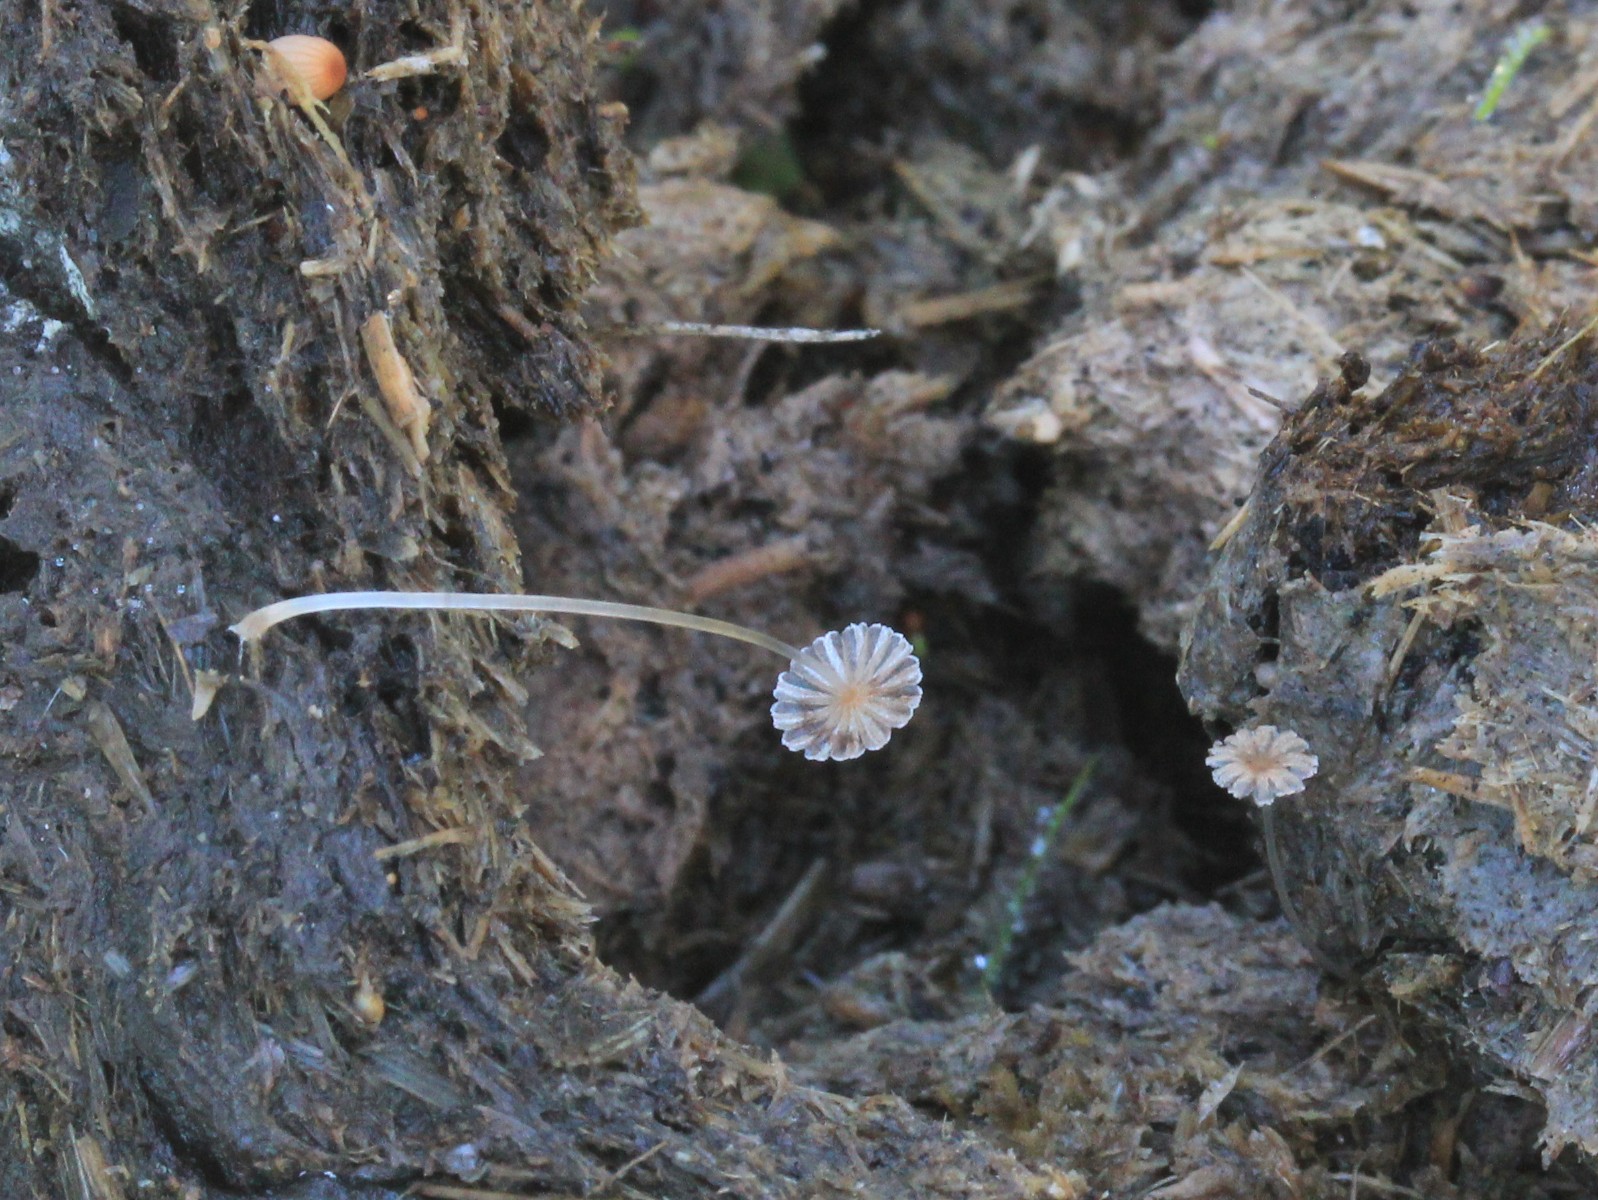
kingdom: Fungi
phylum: Basidiomycota
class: Agaricomycetes
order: Agaricales
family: Psathyrellaceae
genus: Parasola
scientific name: Parasola misera
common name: lillebitte hjulhat
